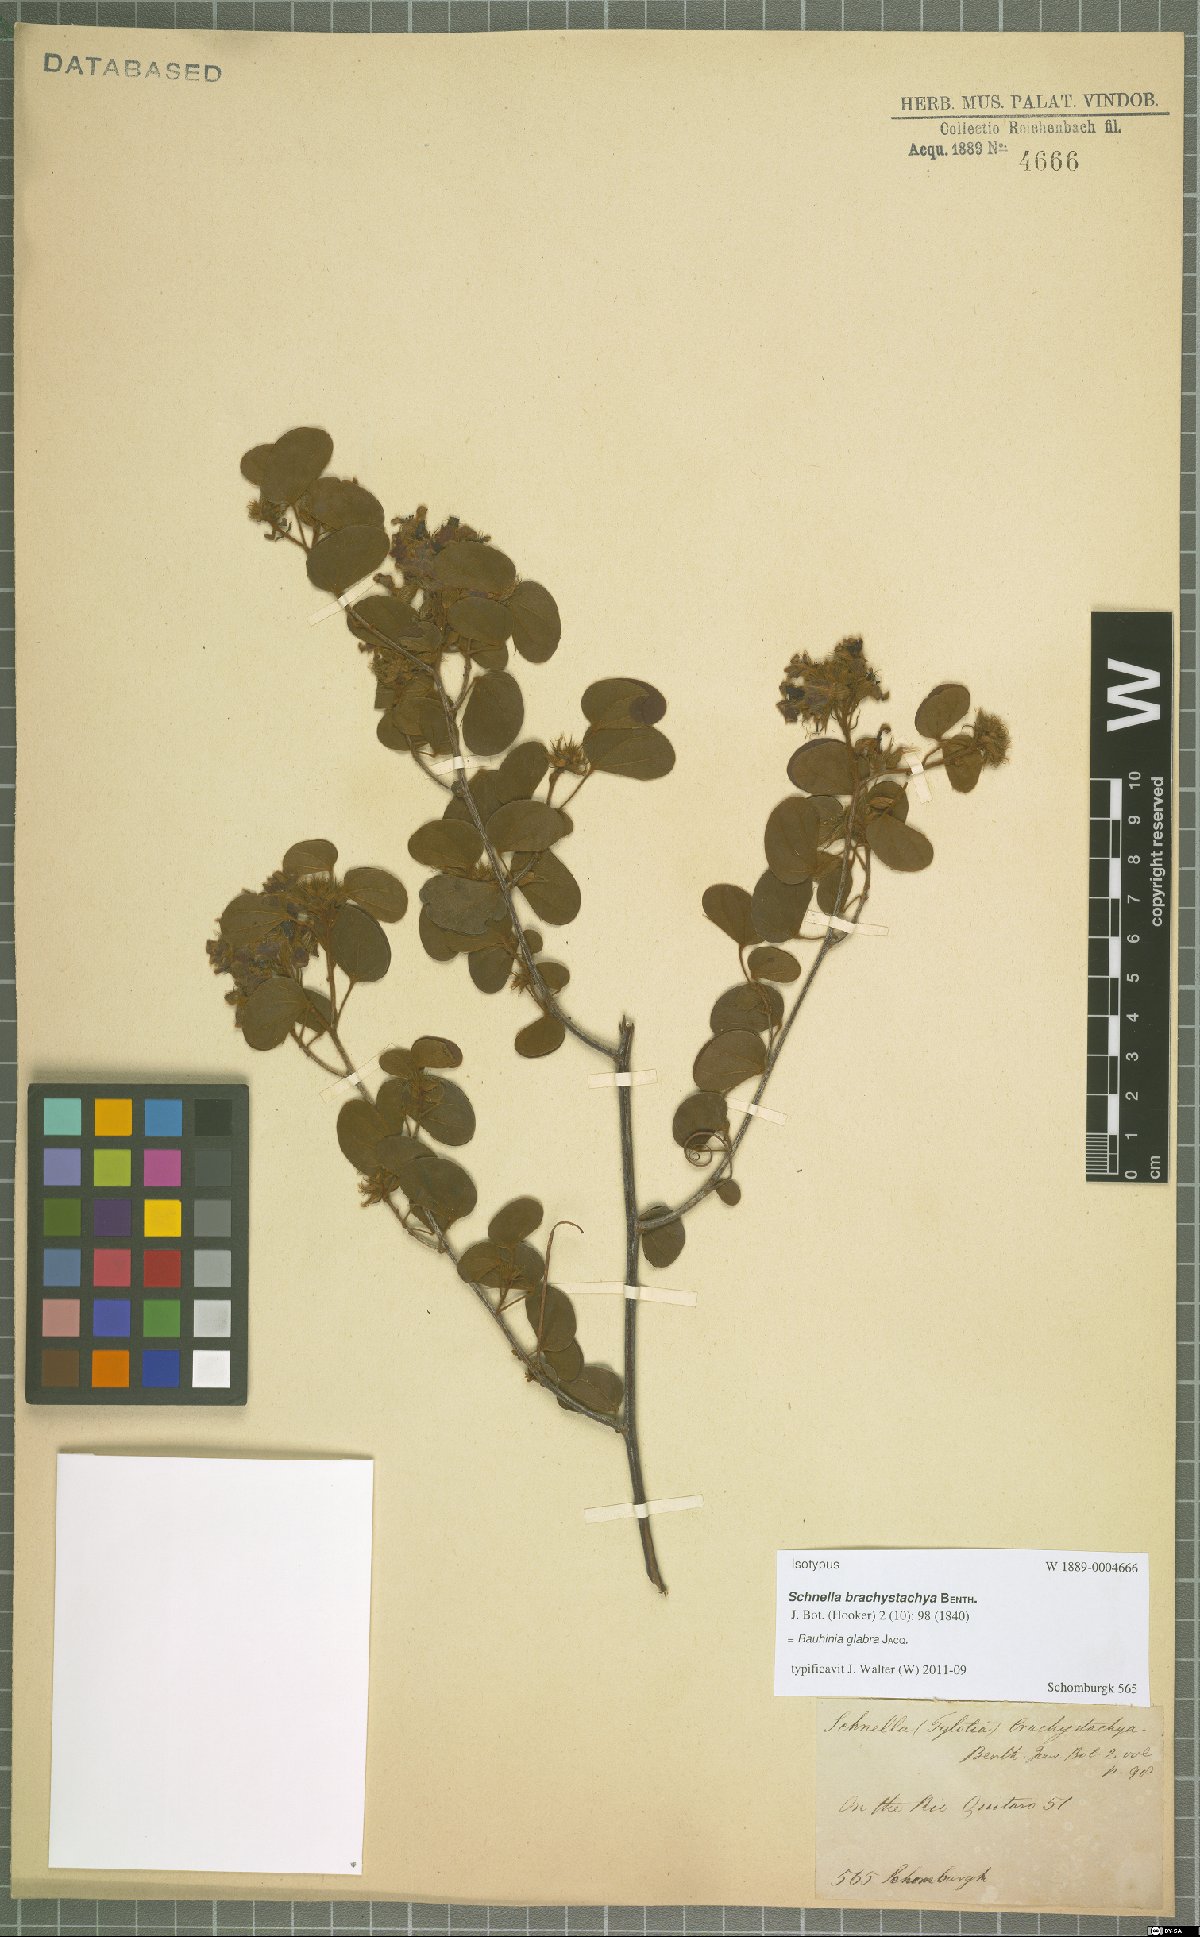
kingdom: Plantae
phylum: Tracheophyta
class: Magnoliopsida
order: Fabales
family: Fabaceae
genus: Schnella
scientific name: Schnella glabra
